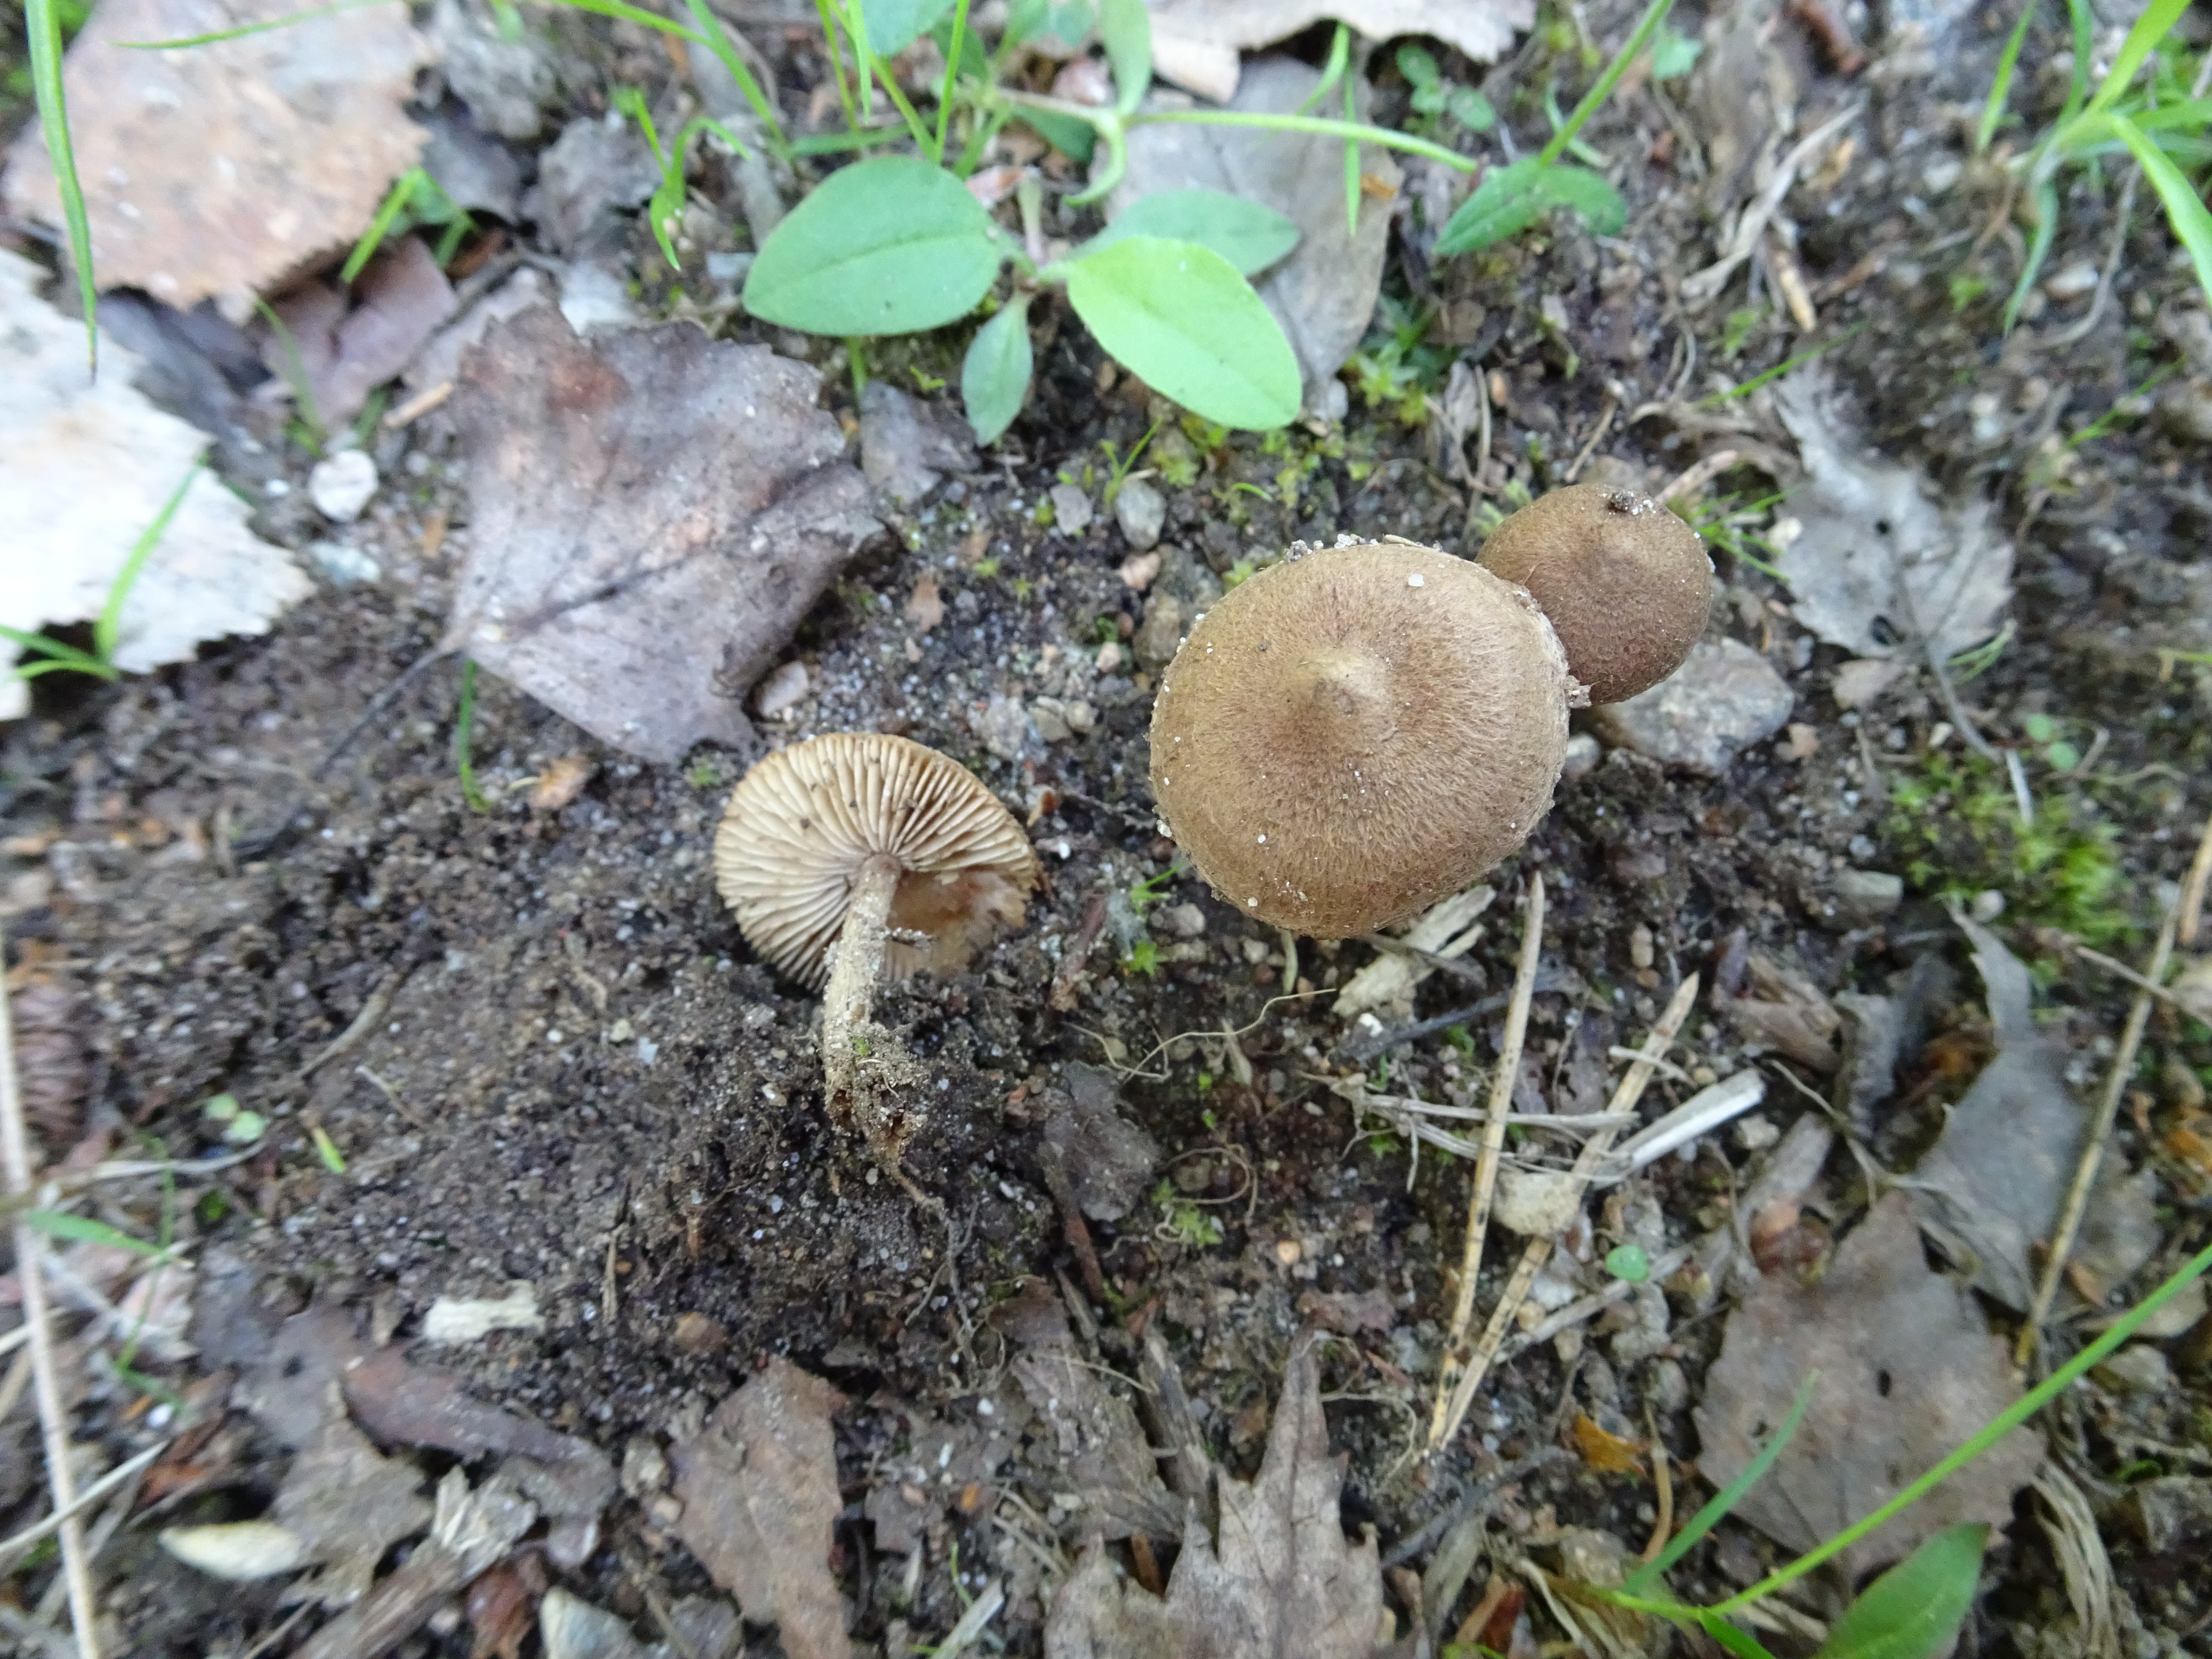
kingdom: Fungi
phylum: Basidiomycota
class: Agaricomycetes
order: Agaricales
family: Inocybaceae
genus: Inocybe
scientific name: Inocybe lacera
